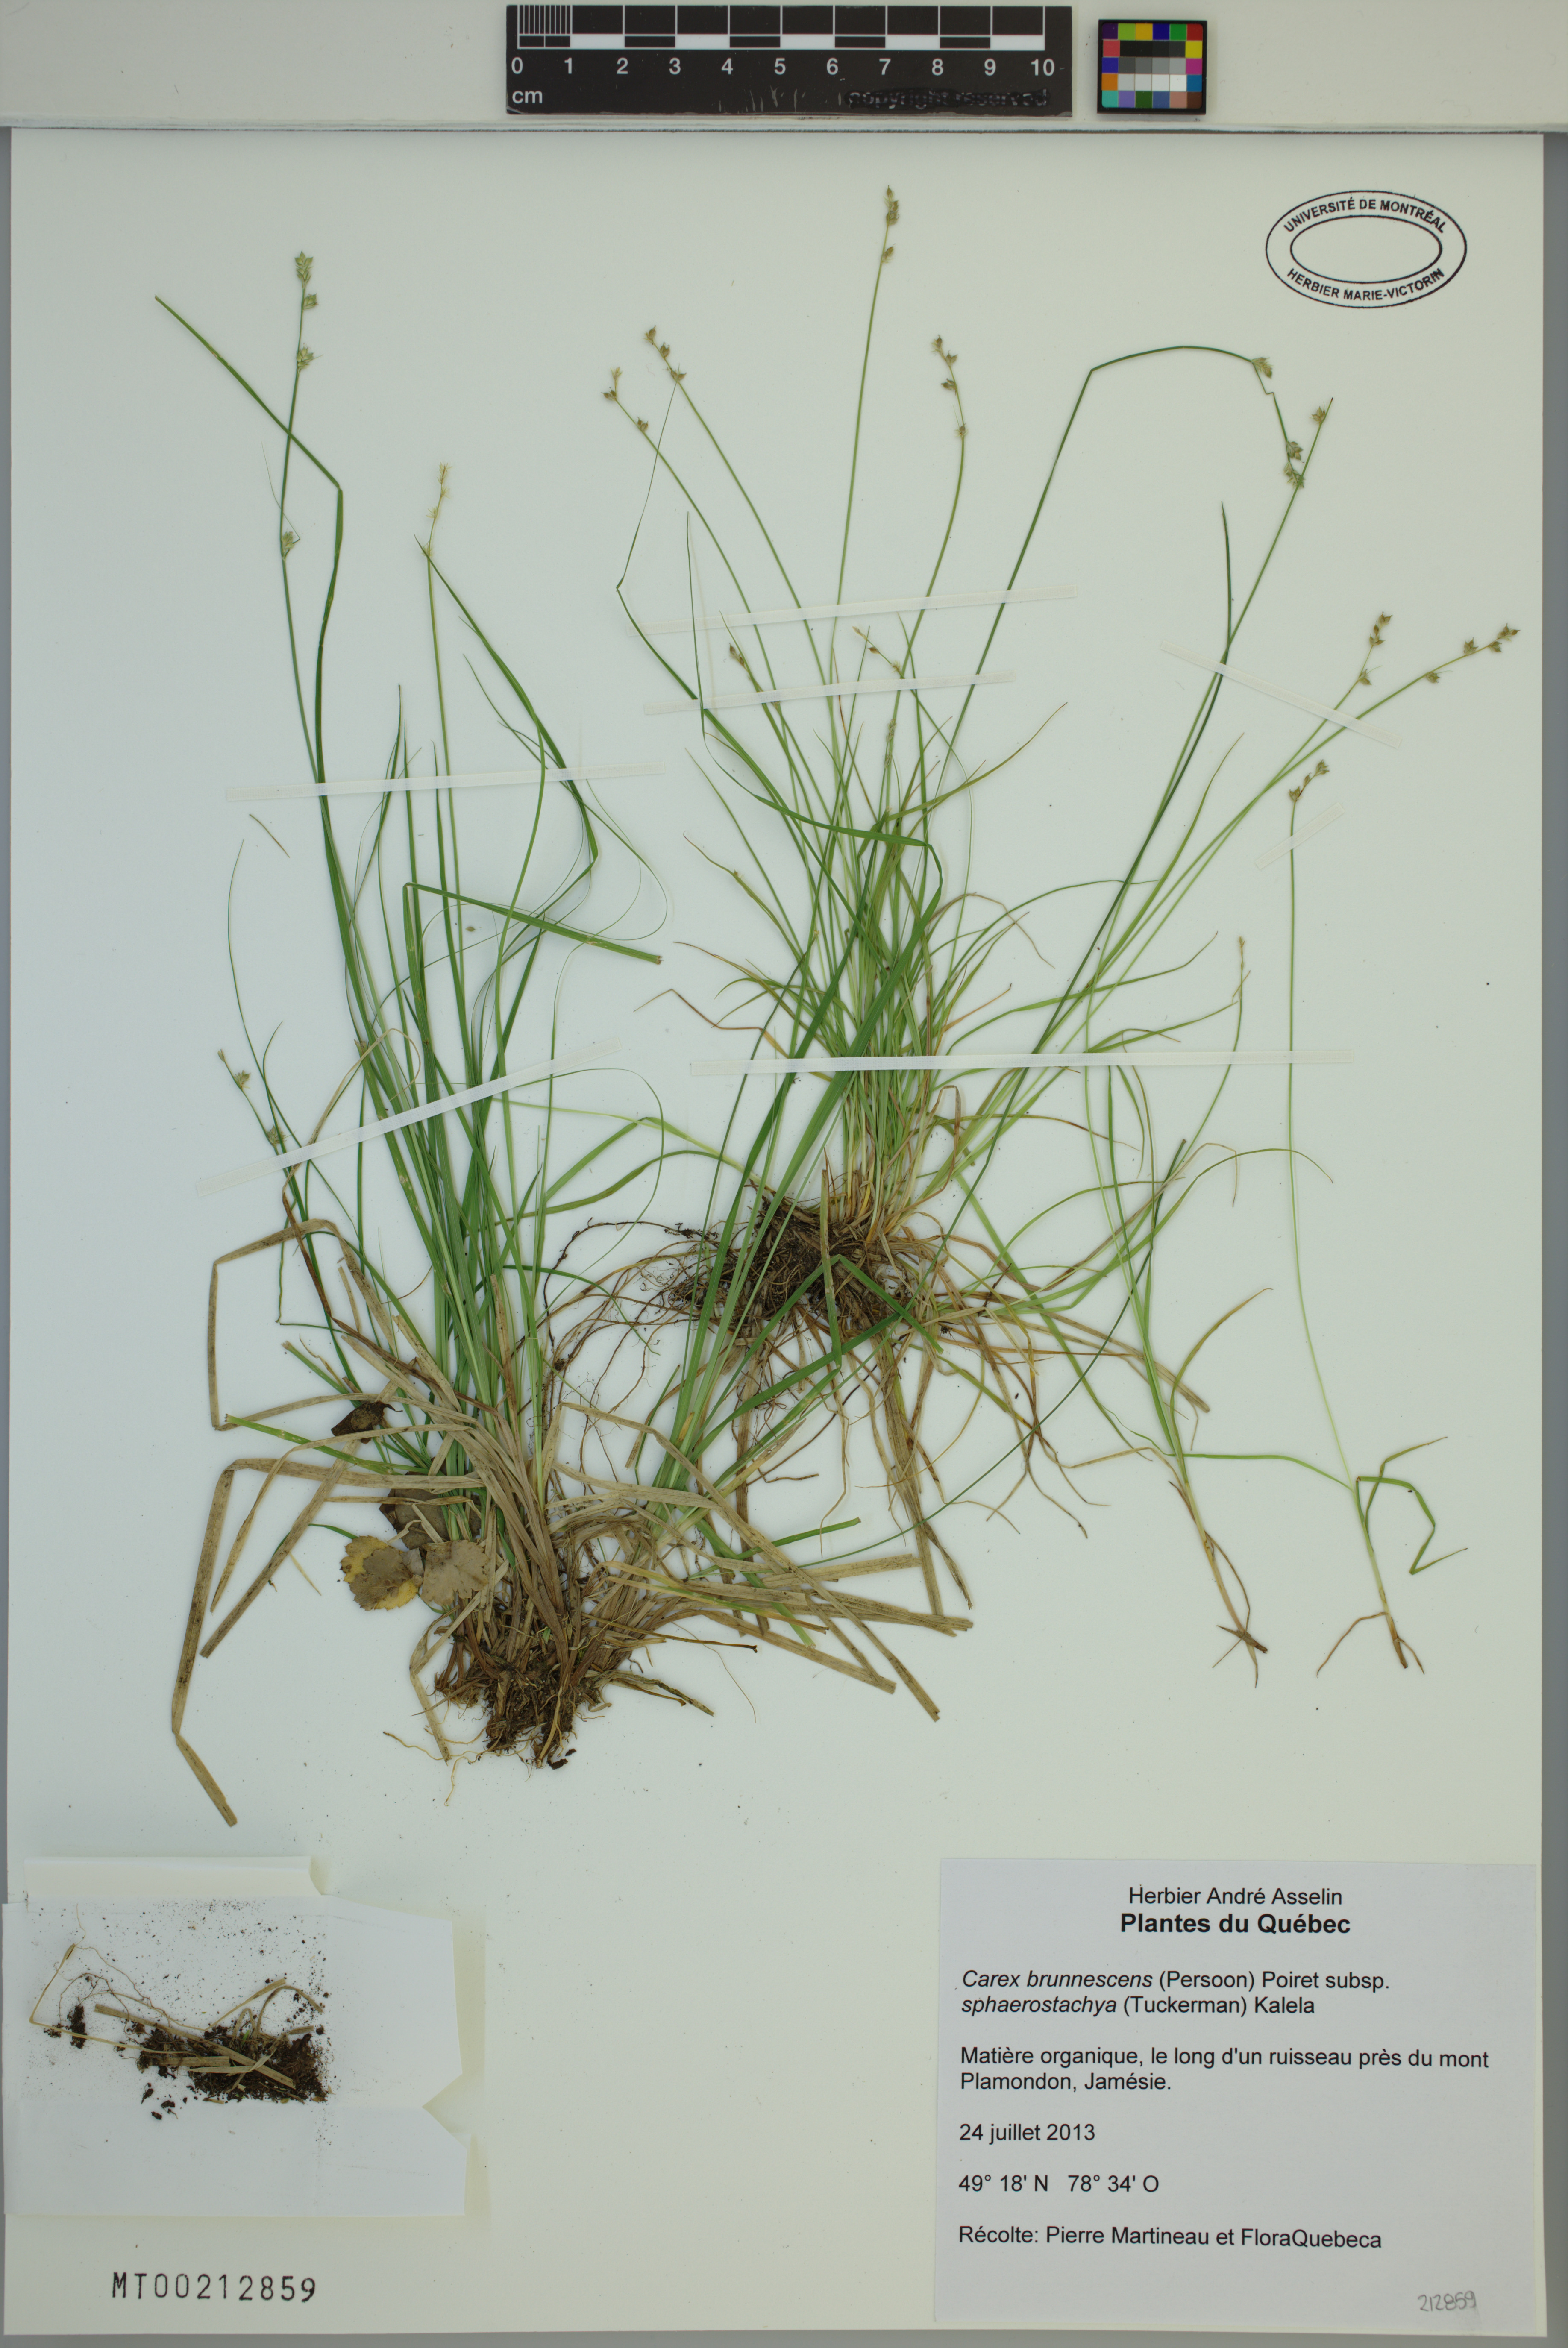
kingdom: Plantae
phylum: Tracheophyta
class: Liliopsida
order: Poales
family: Cyperaceae
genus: Carex
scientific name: Carex brunnescens
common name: Brown sedge
